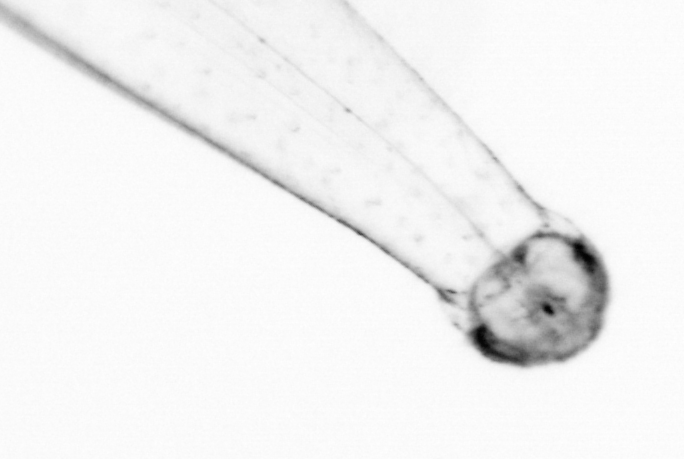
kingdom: Animalia
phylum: Chaetognatha
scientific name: Chaetognatha
